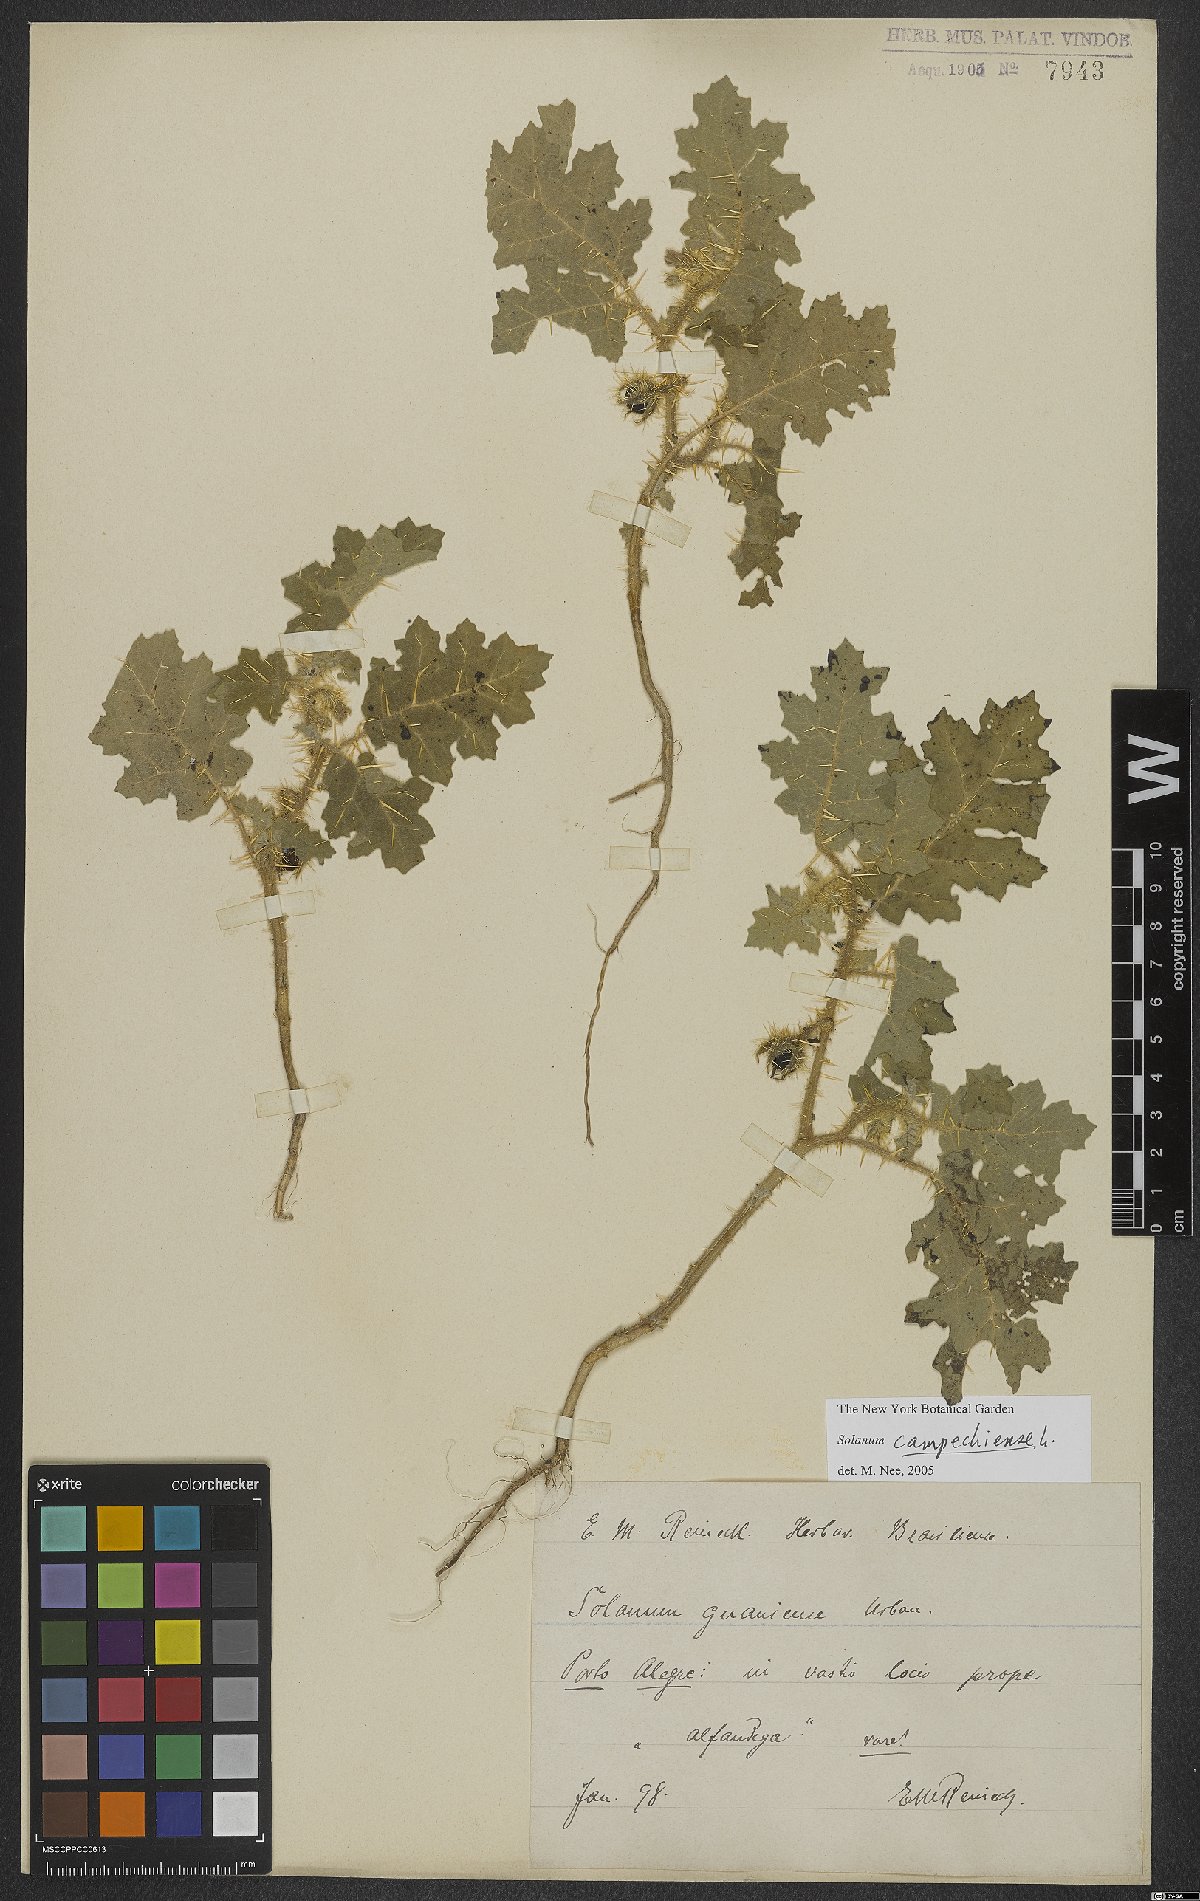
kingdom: Plantae
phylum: Tracheophyta
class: Magnoliopsida
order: Solanales
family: Solanaceae
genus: Solanum
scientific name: Solanum campechiense
